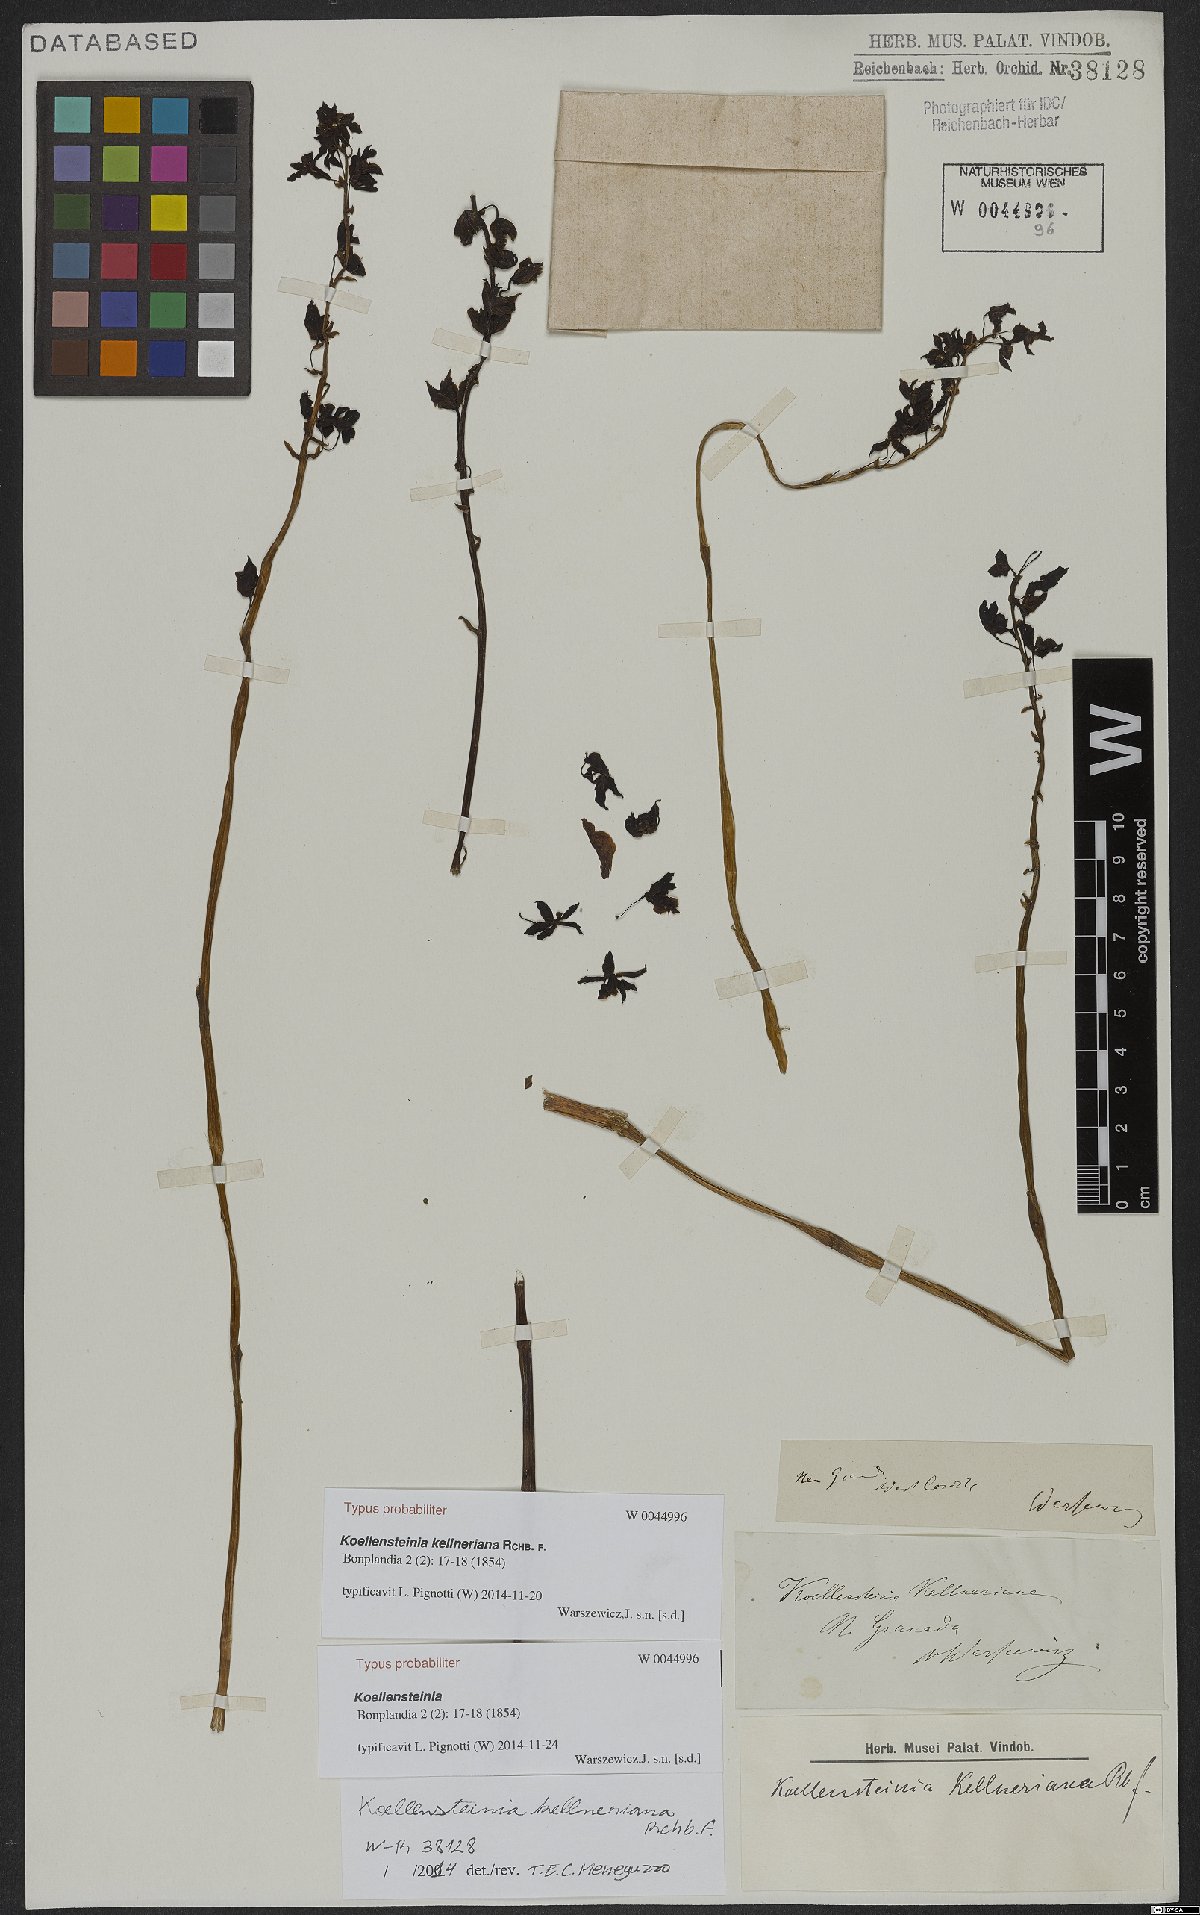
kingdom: Plantae
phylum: Tracheophyta
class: Liliopsida
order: Asparagales
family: Orchidaceae
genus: Koellensteinia
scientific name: Koellensteinia kellneriana
